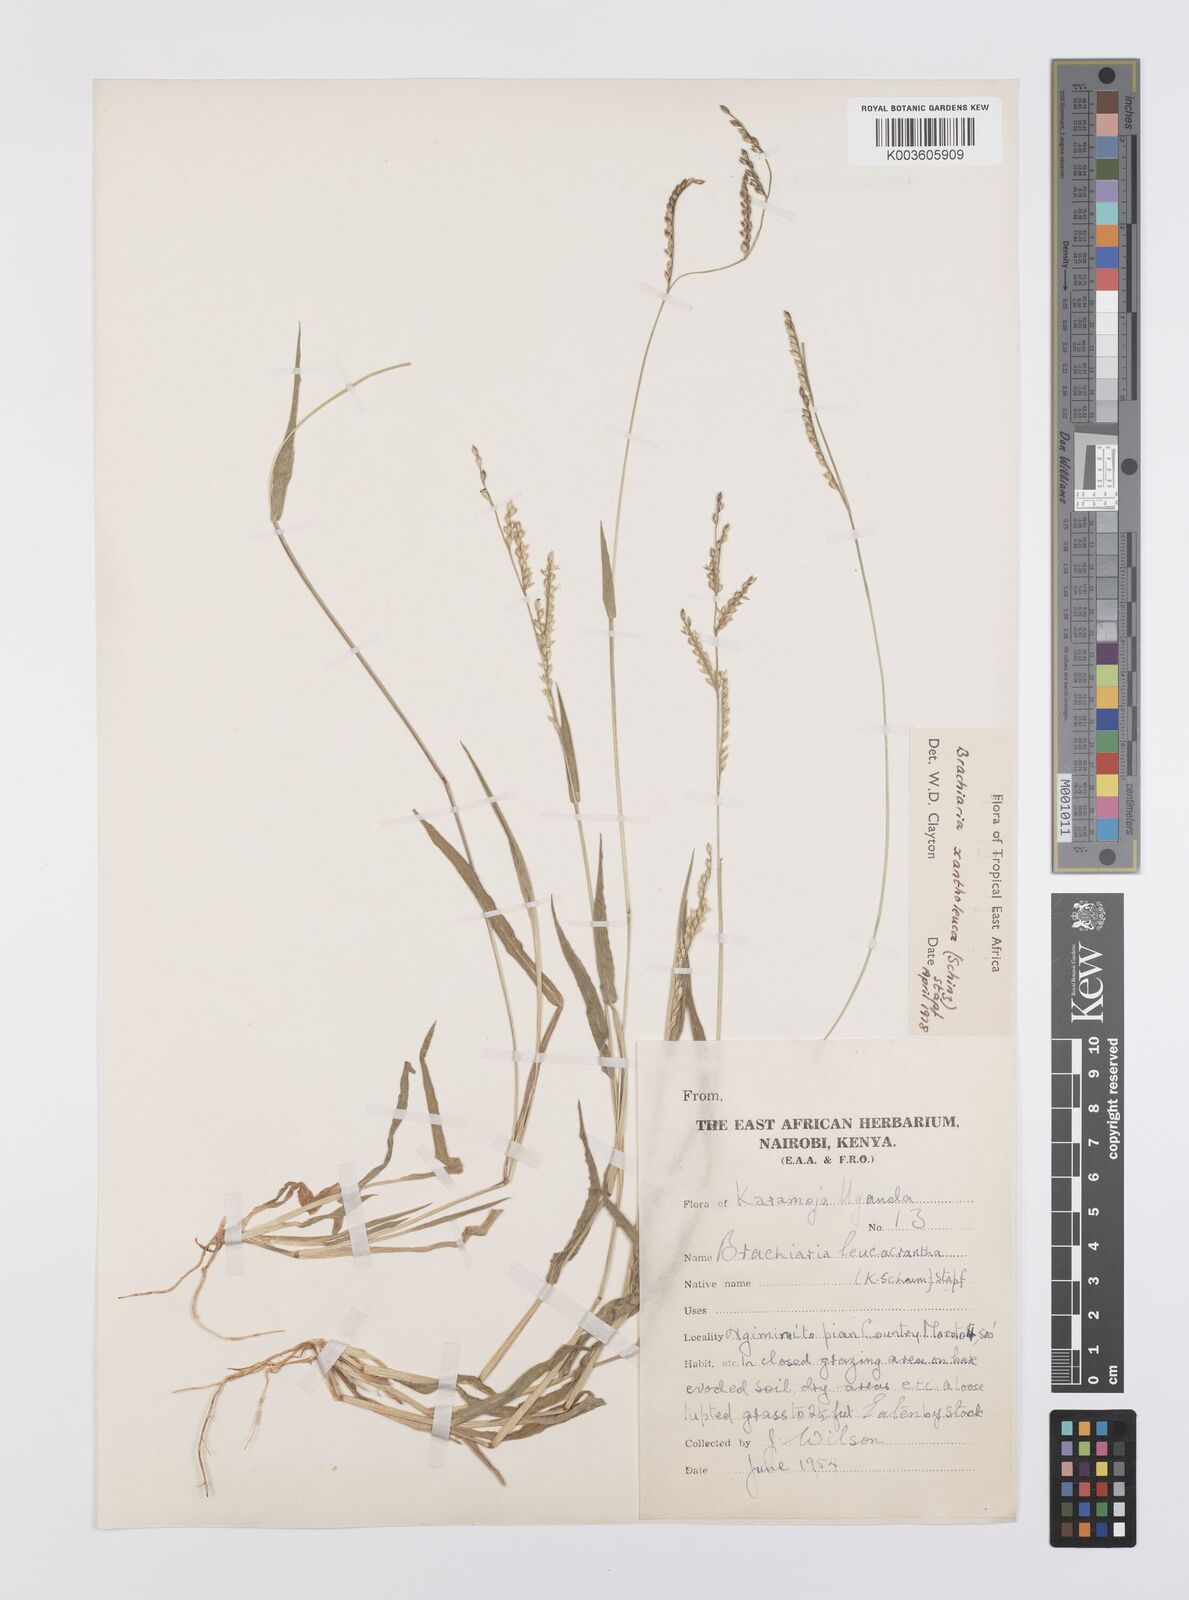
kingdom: Plantae
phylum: Tracheophyta
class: Liliopsida
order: Poales
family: Poaceae
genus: Urochloa
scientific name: Urochloa xantholeuca
